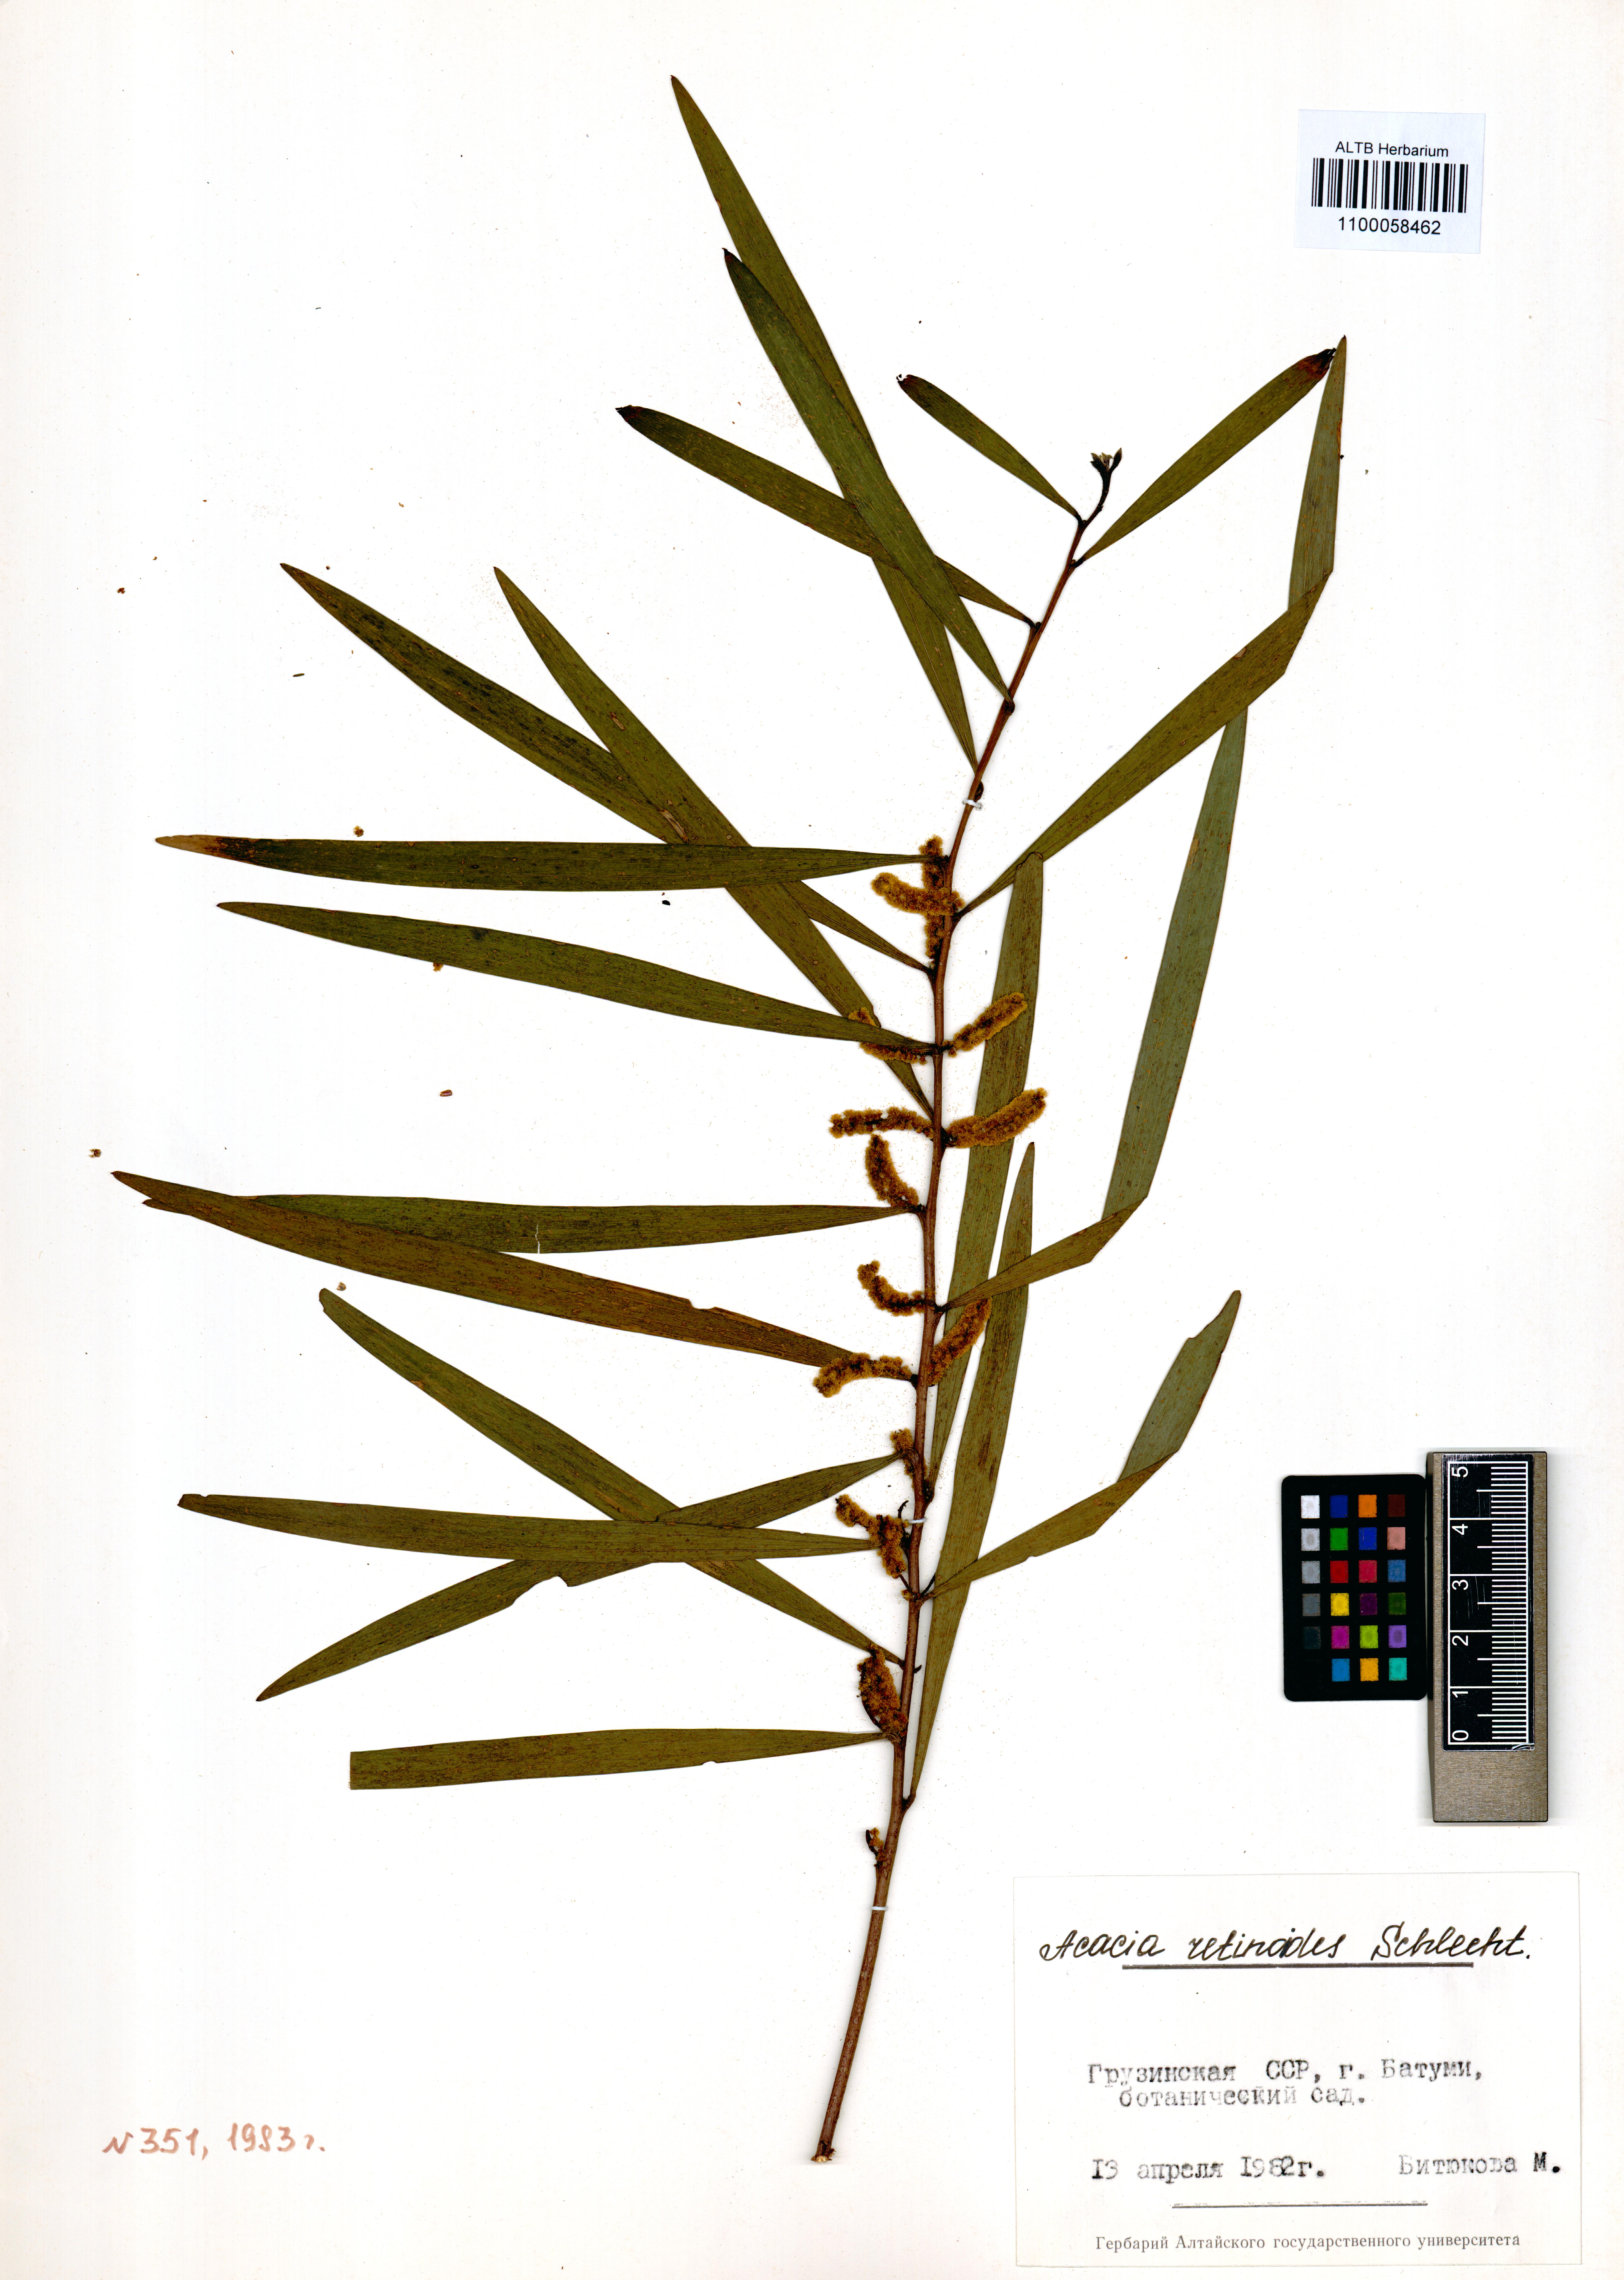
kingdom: Plantae
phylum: Tracheophyta
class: Magnoliopsida
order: Fabales
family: Fabaceae
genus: Acacia
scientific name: Acacia retinodes
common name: Silver wattle
